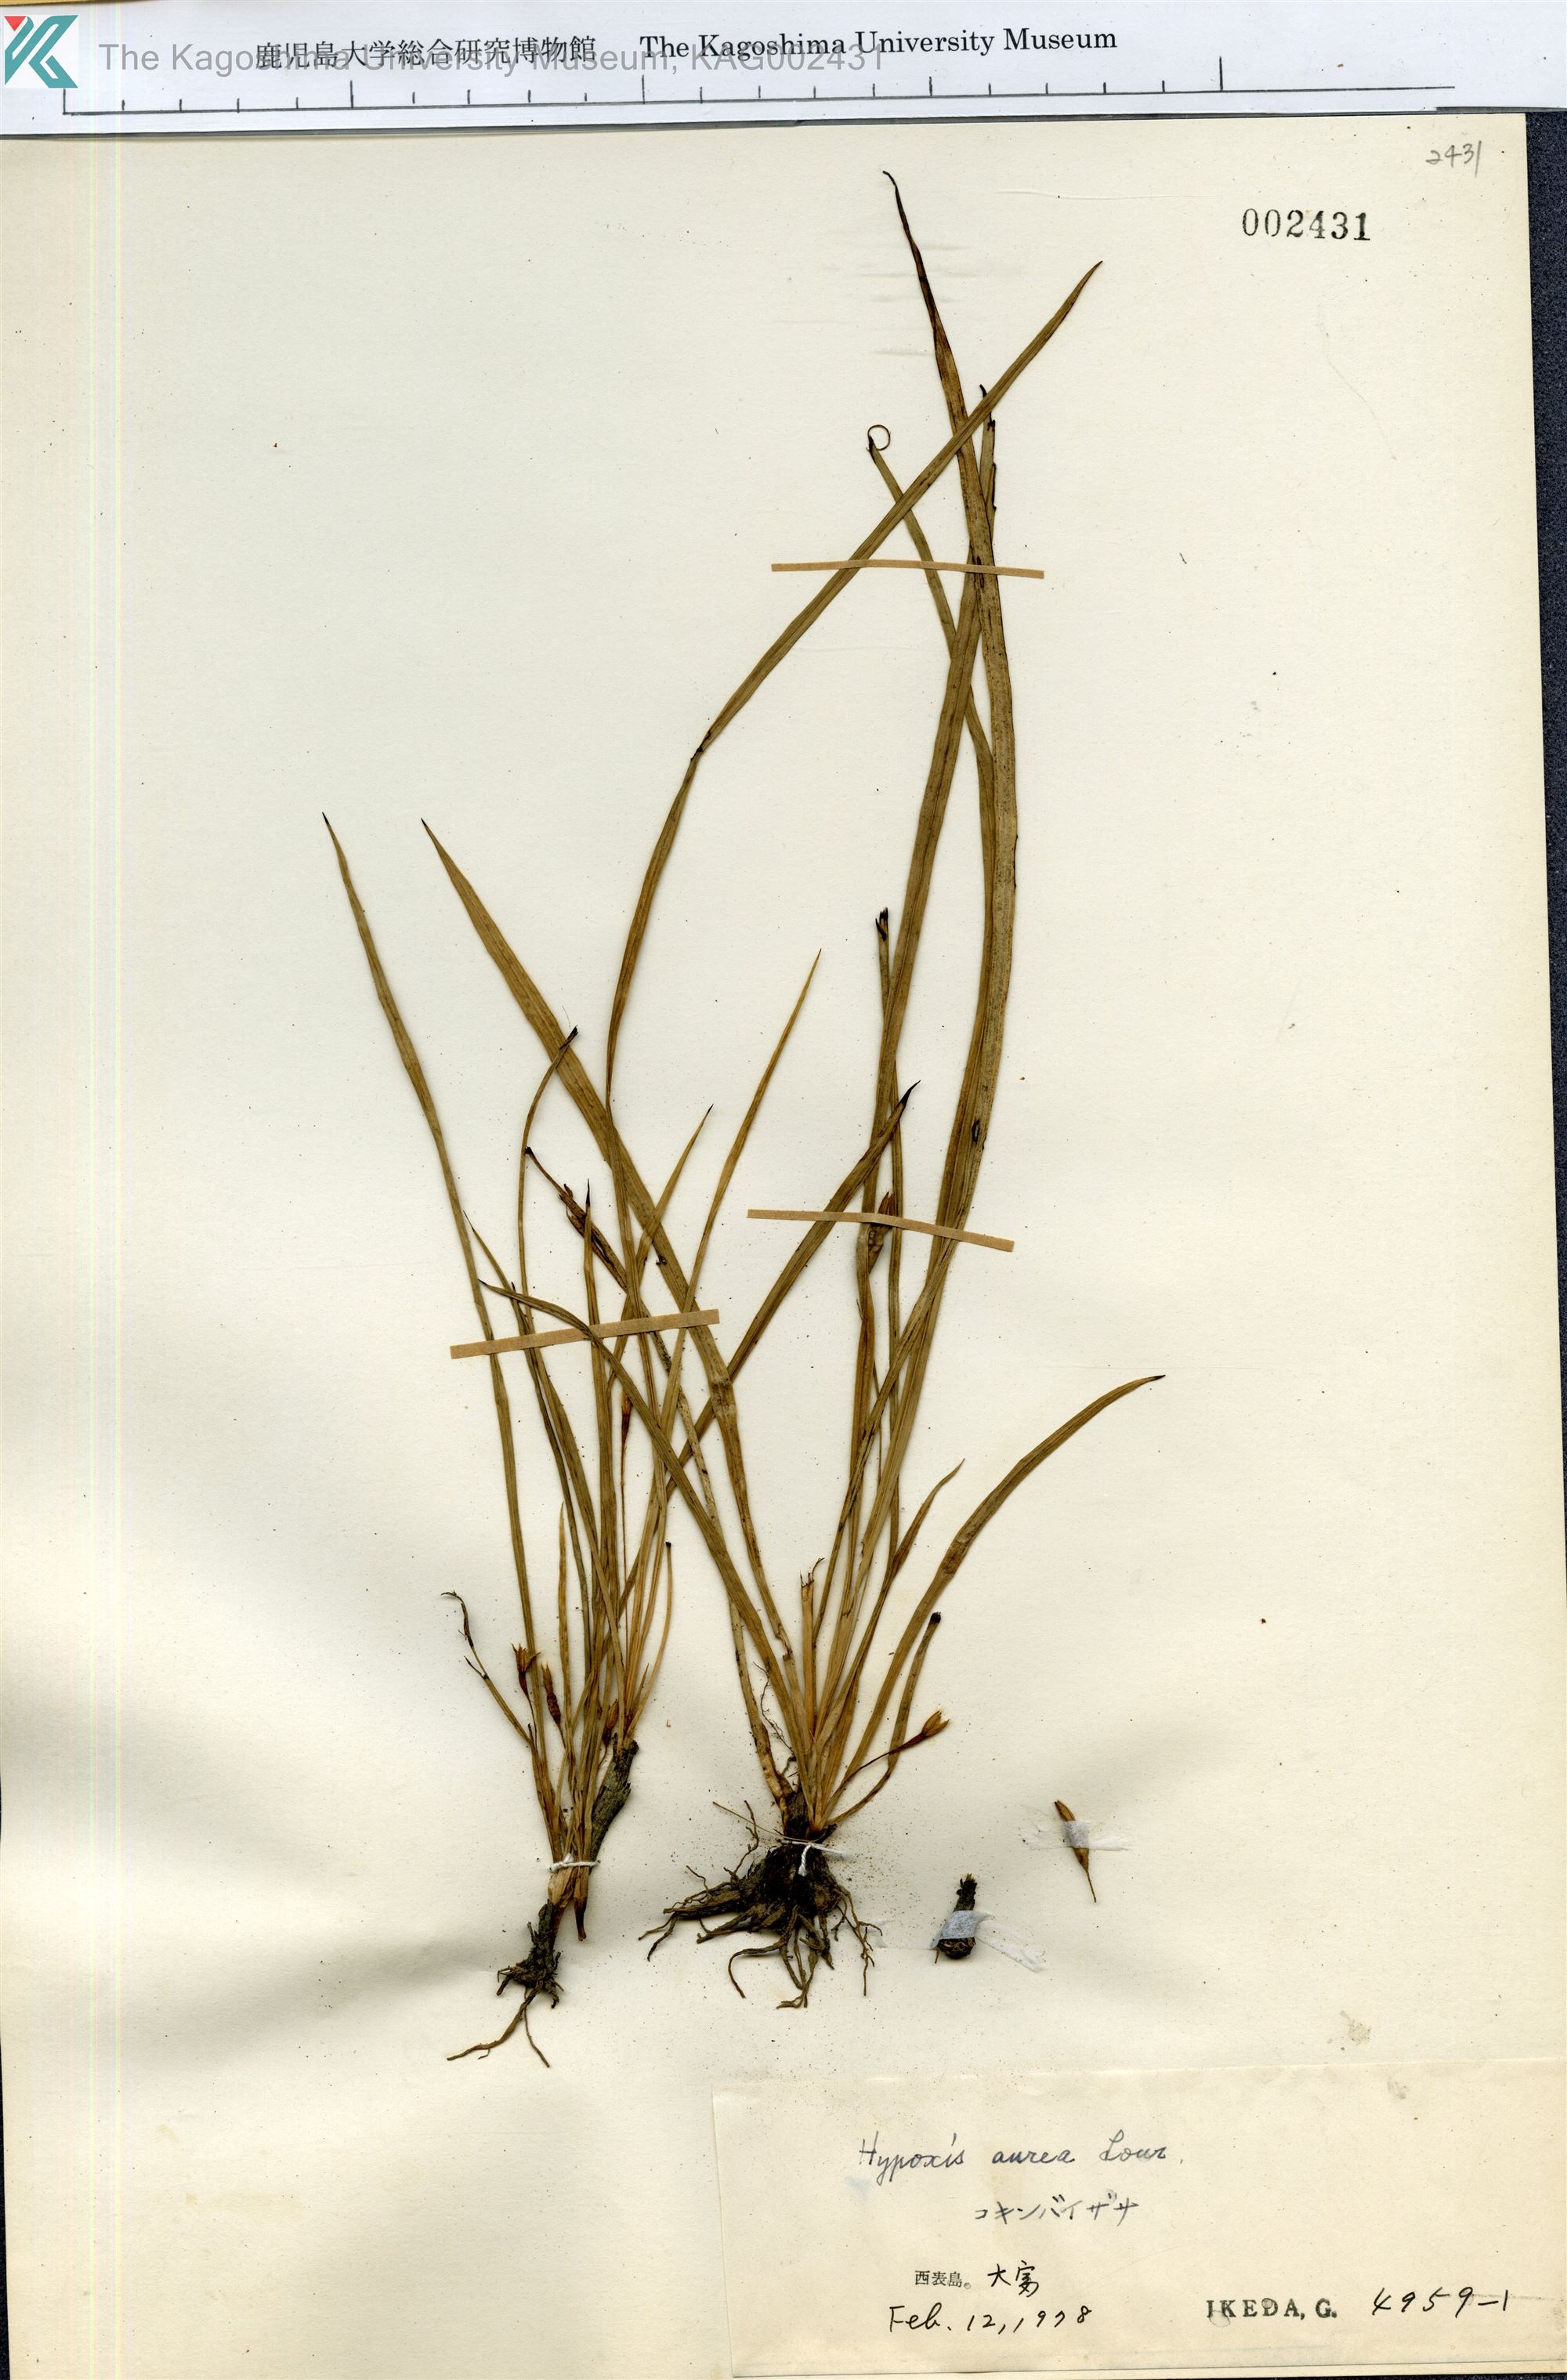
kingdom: Plantae
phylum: Tracheophyta
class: Liliopsida
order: Asparagales
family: Hypoxidaceae
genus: Hypoxis
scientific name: Hypoxis aurea
